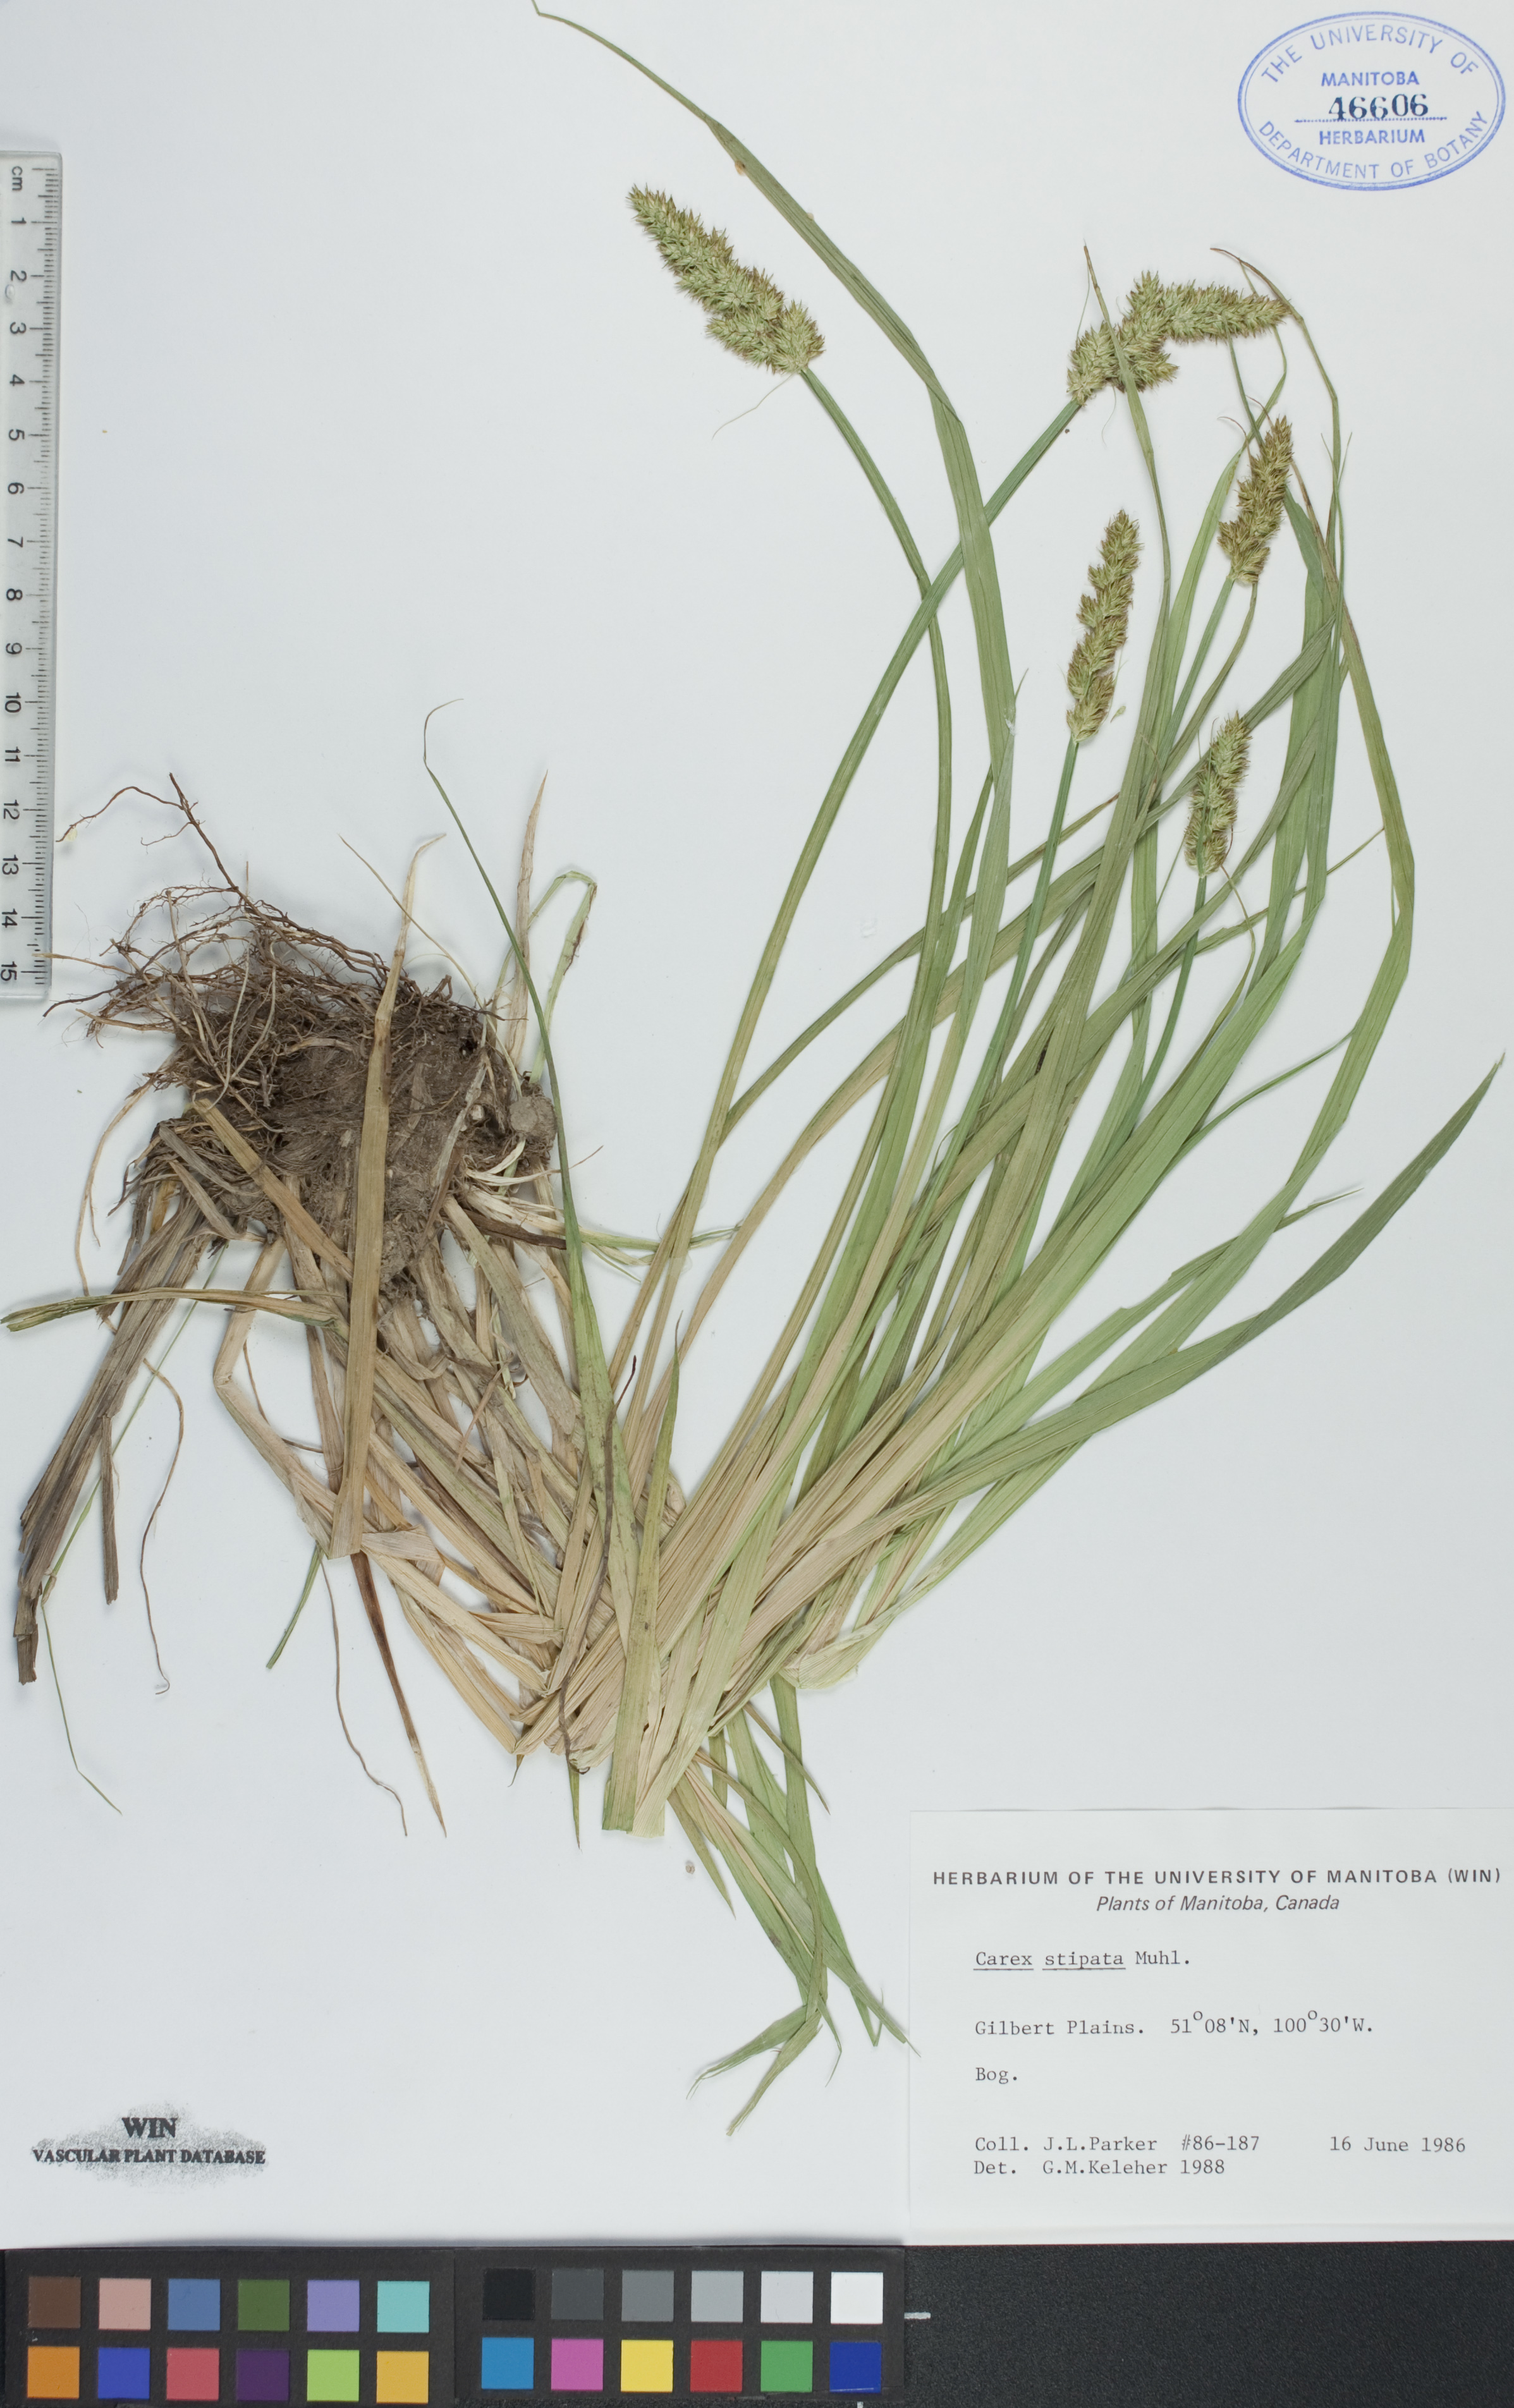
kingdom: Plantae
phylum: Tracheophyta
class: Liliopsida
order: Poales
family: Cyperaceae
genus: Carex
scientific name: Carex stipata
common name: Awl-fruited sedge
